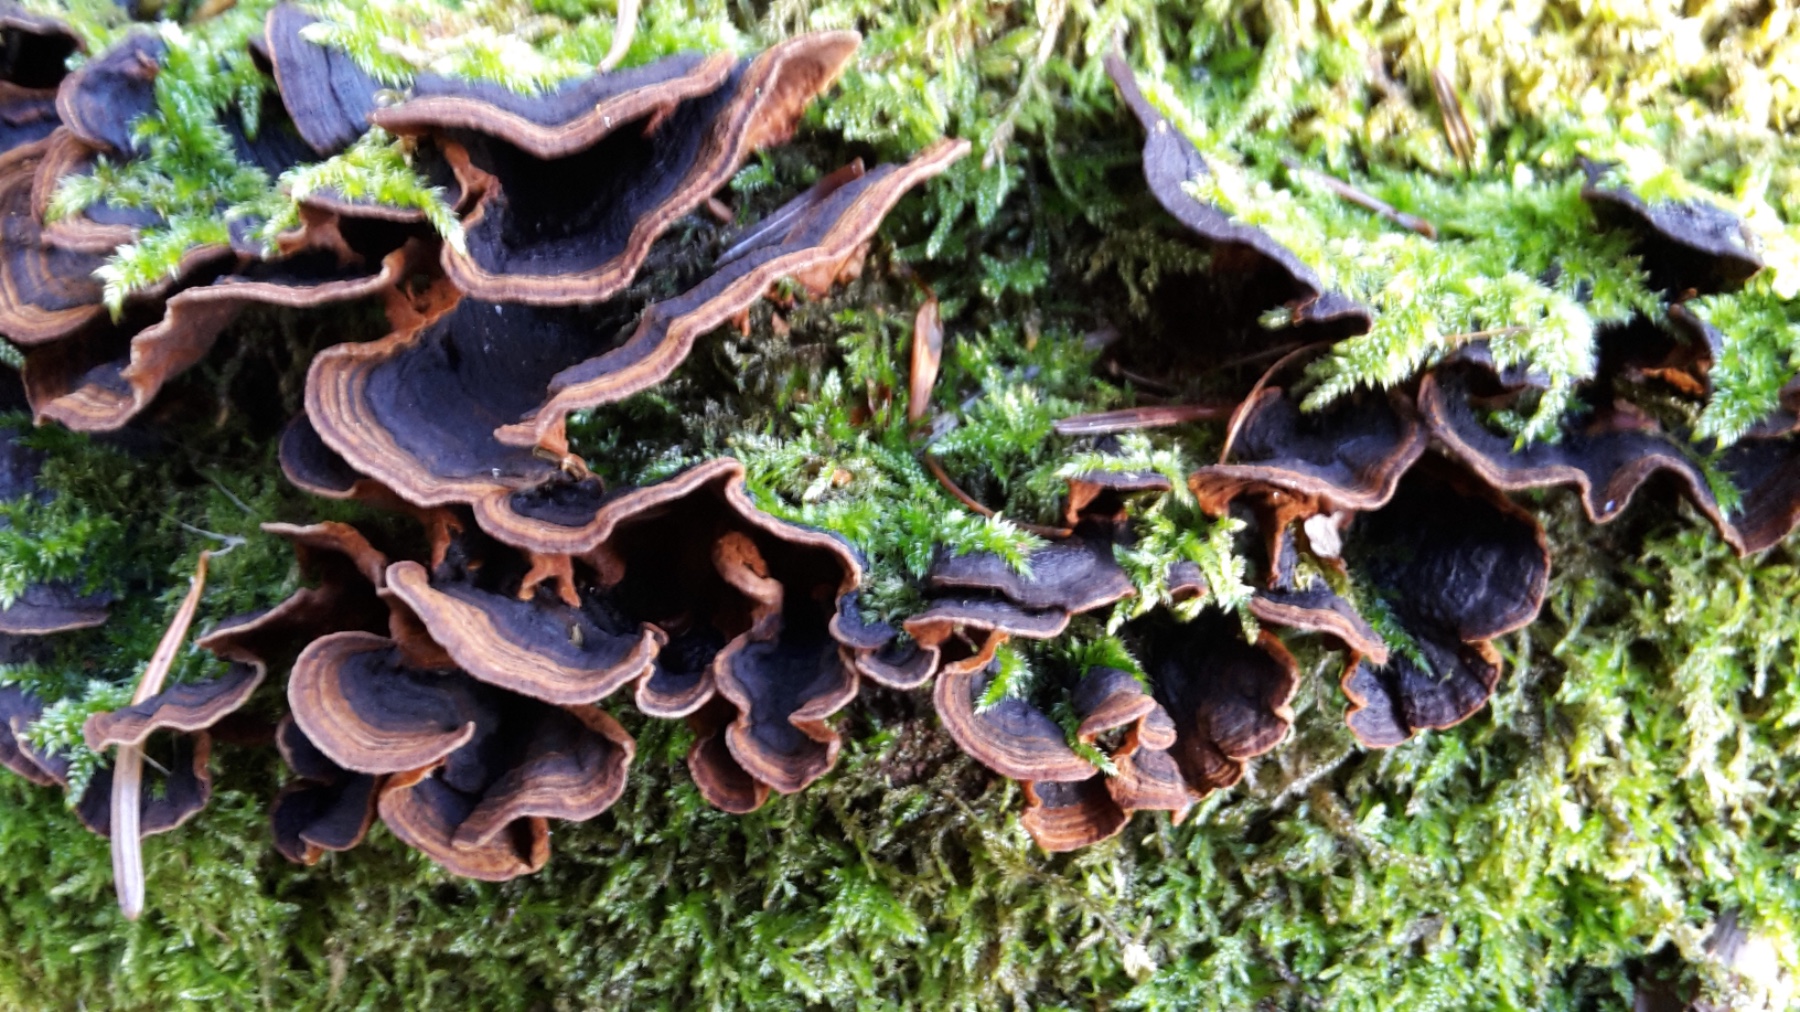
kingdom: Fungi
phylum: Basidiomycota
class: Agaricomycetes
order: Hymenochaetales
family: Hymenochaetaceae
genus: Hymenochaete
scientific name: Hymenochaete rubiginosa
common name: stiv ruslædersvamp
